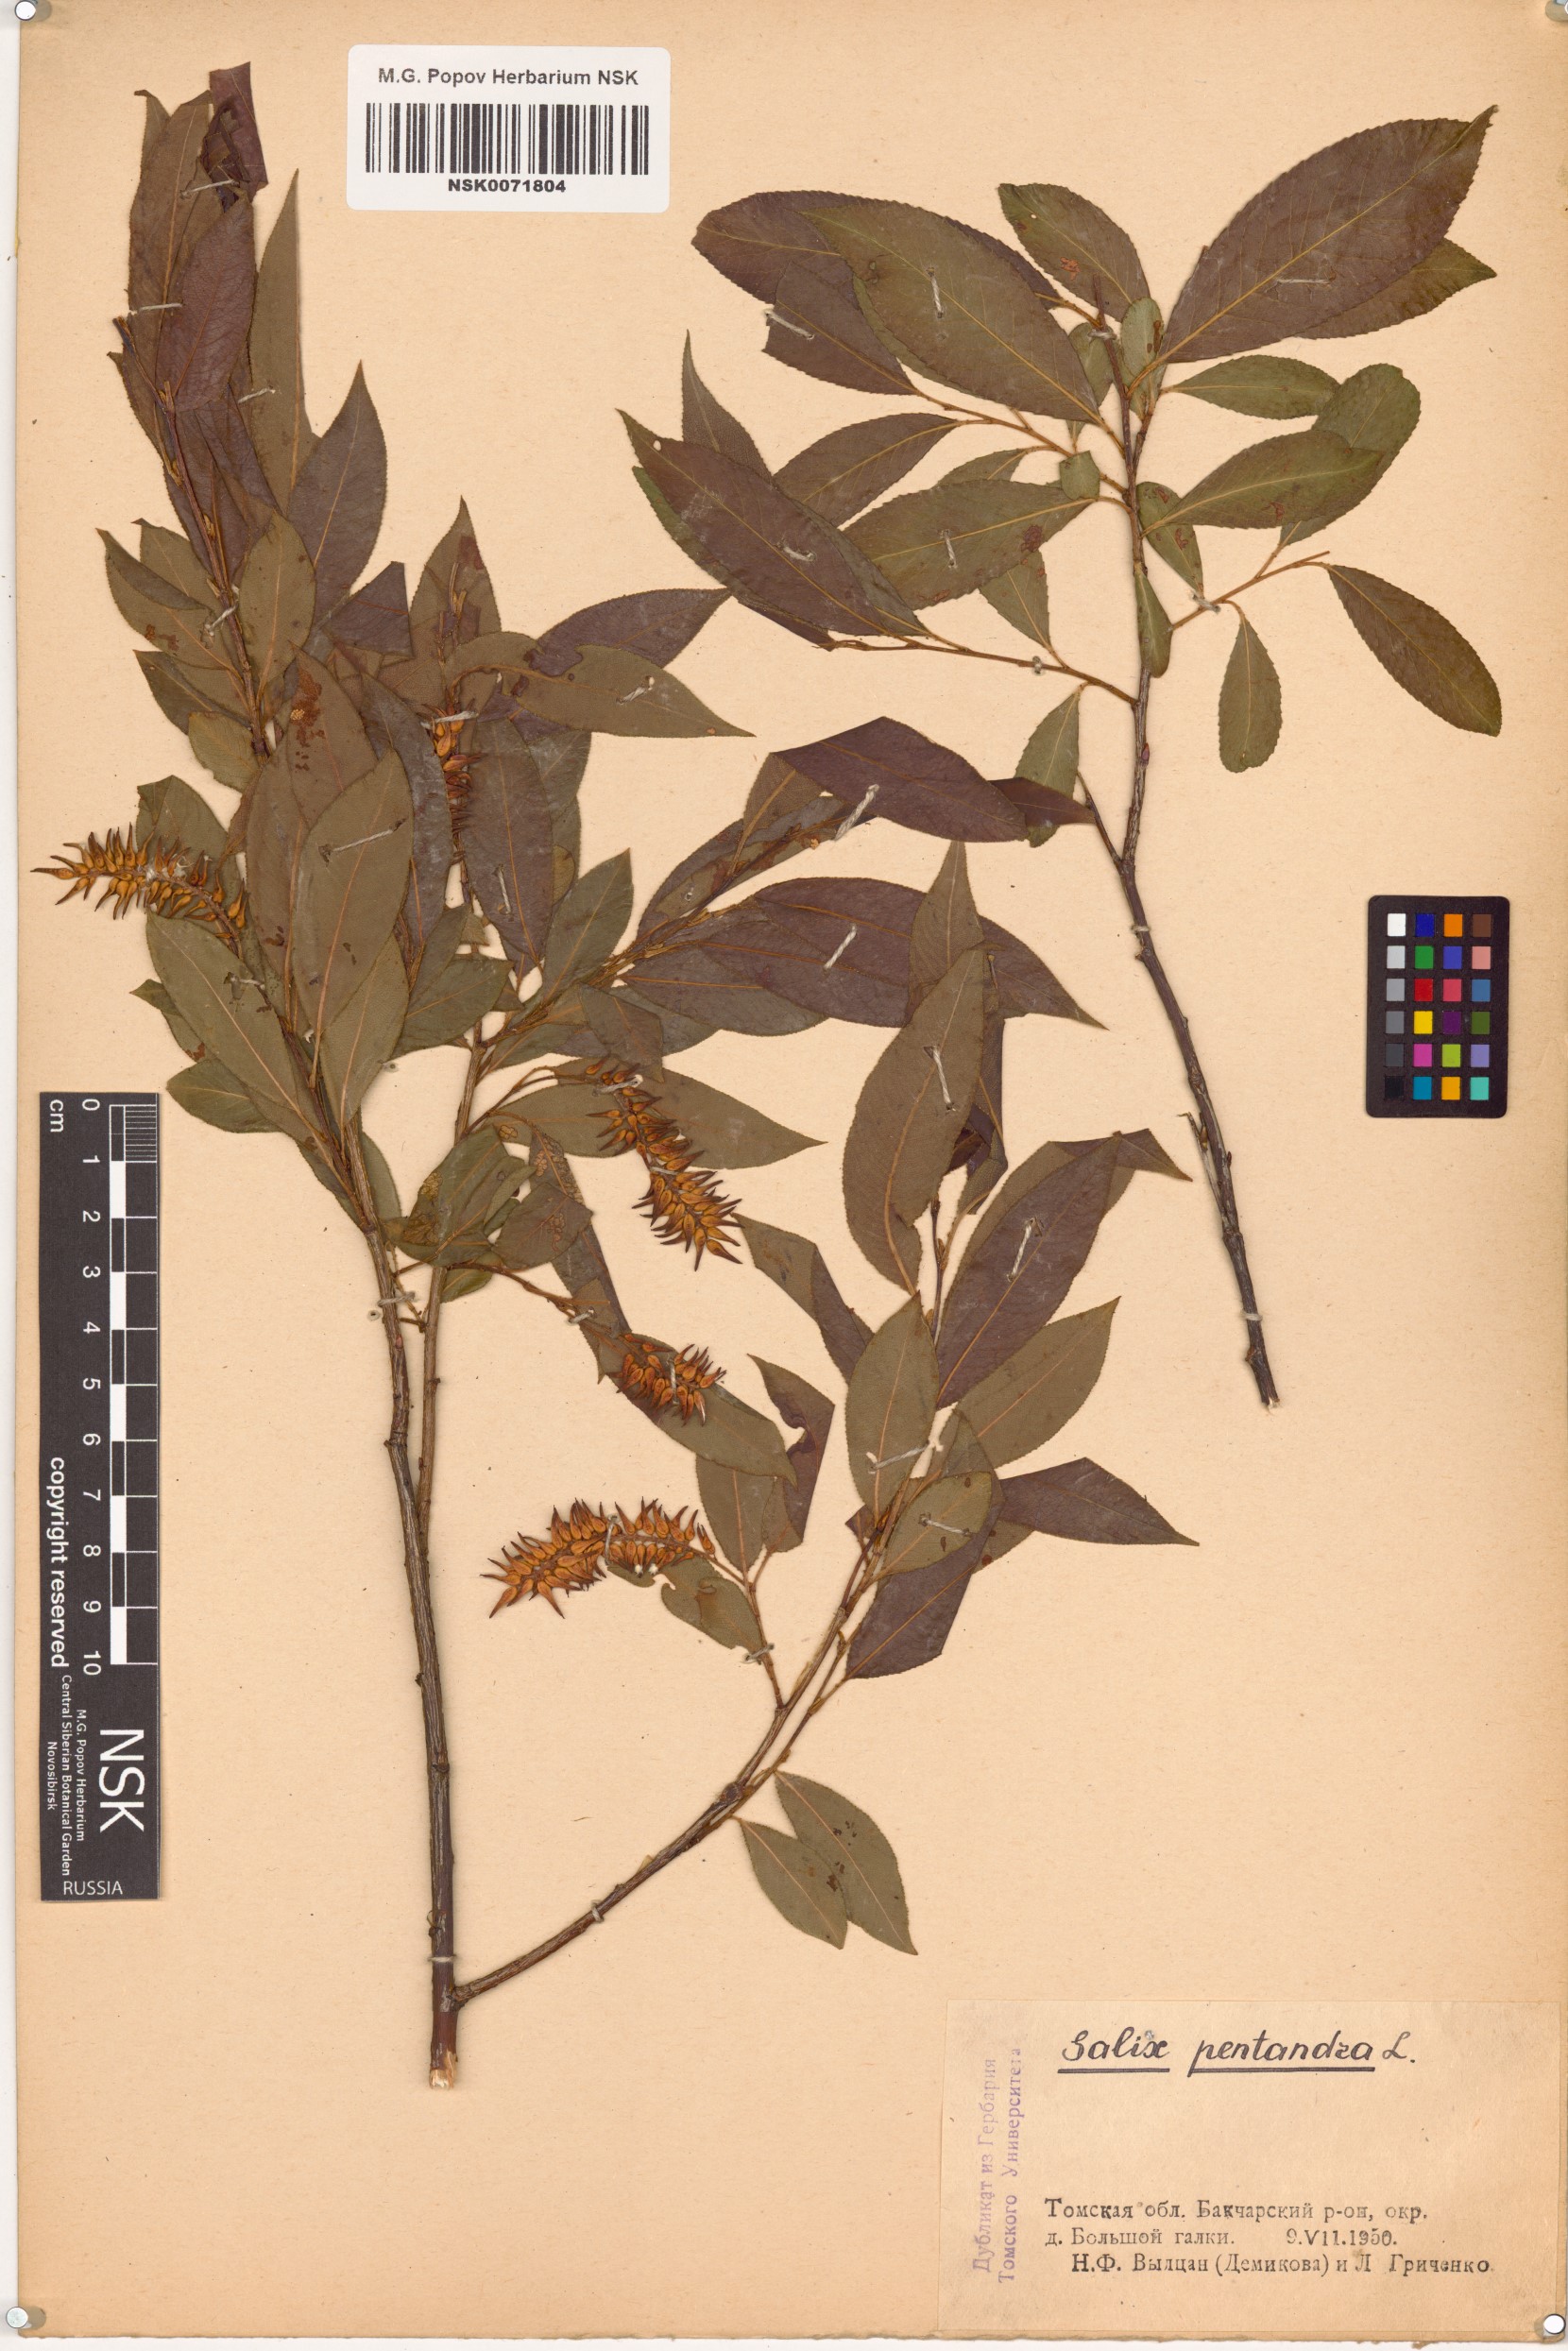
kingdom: Plantae
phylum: Tracheophyta
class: Magnoliopsida
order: Malpighiales
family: Salicaceae
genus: Salix
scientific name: Salix pentandra
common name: Bay willow
